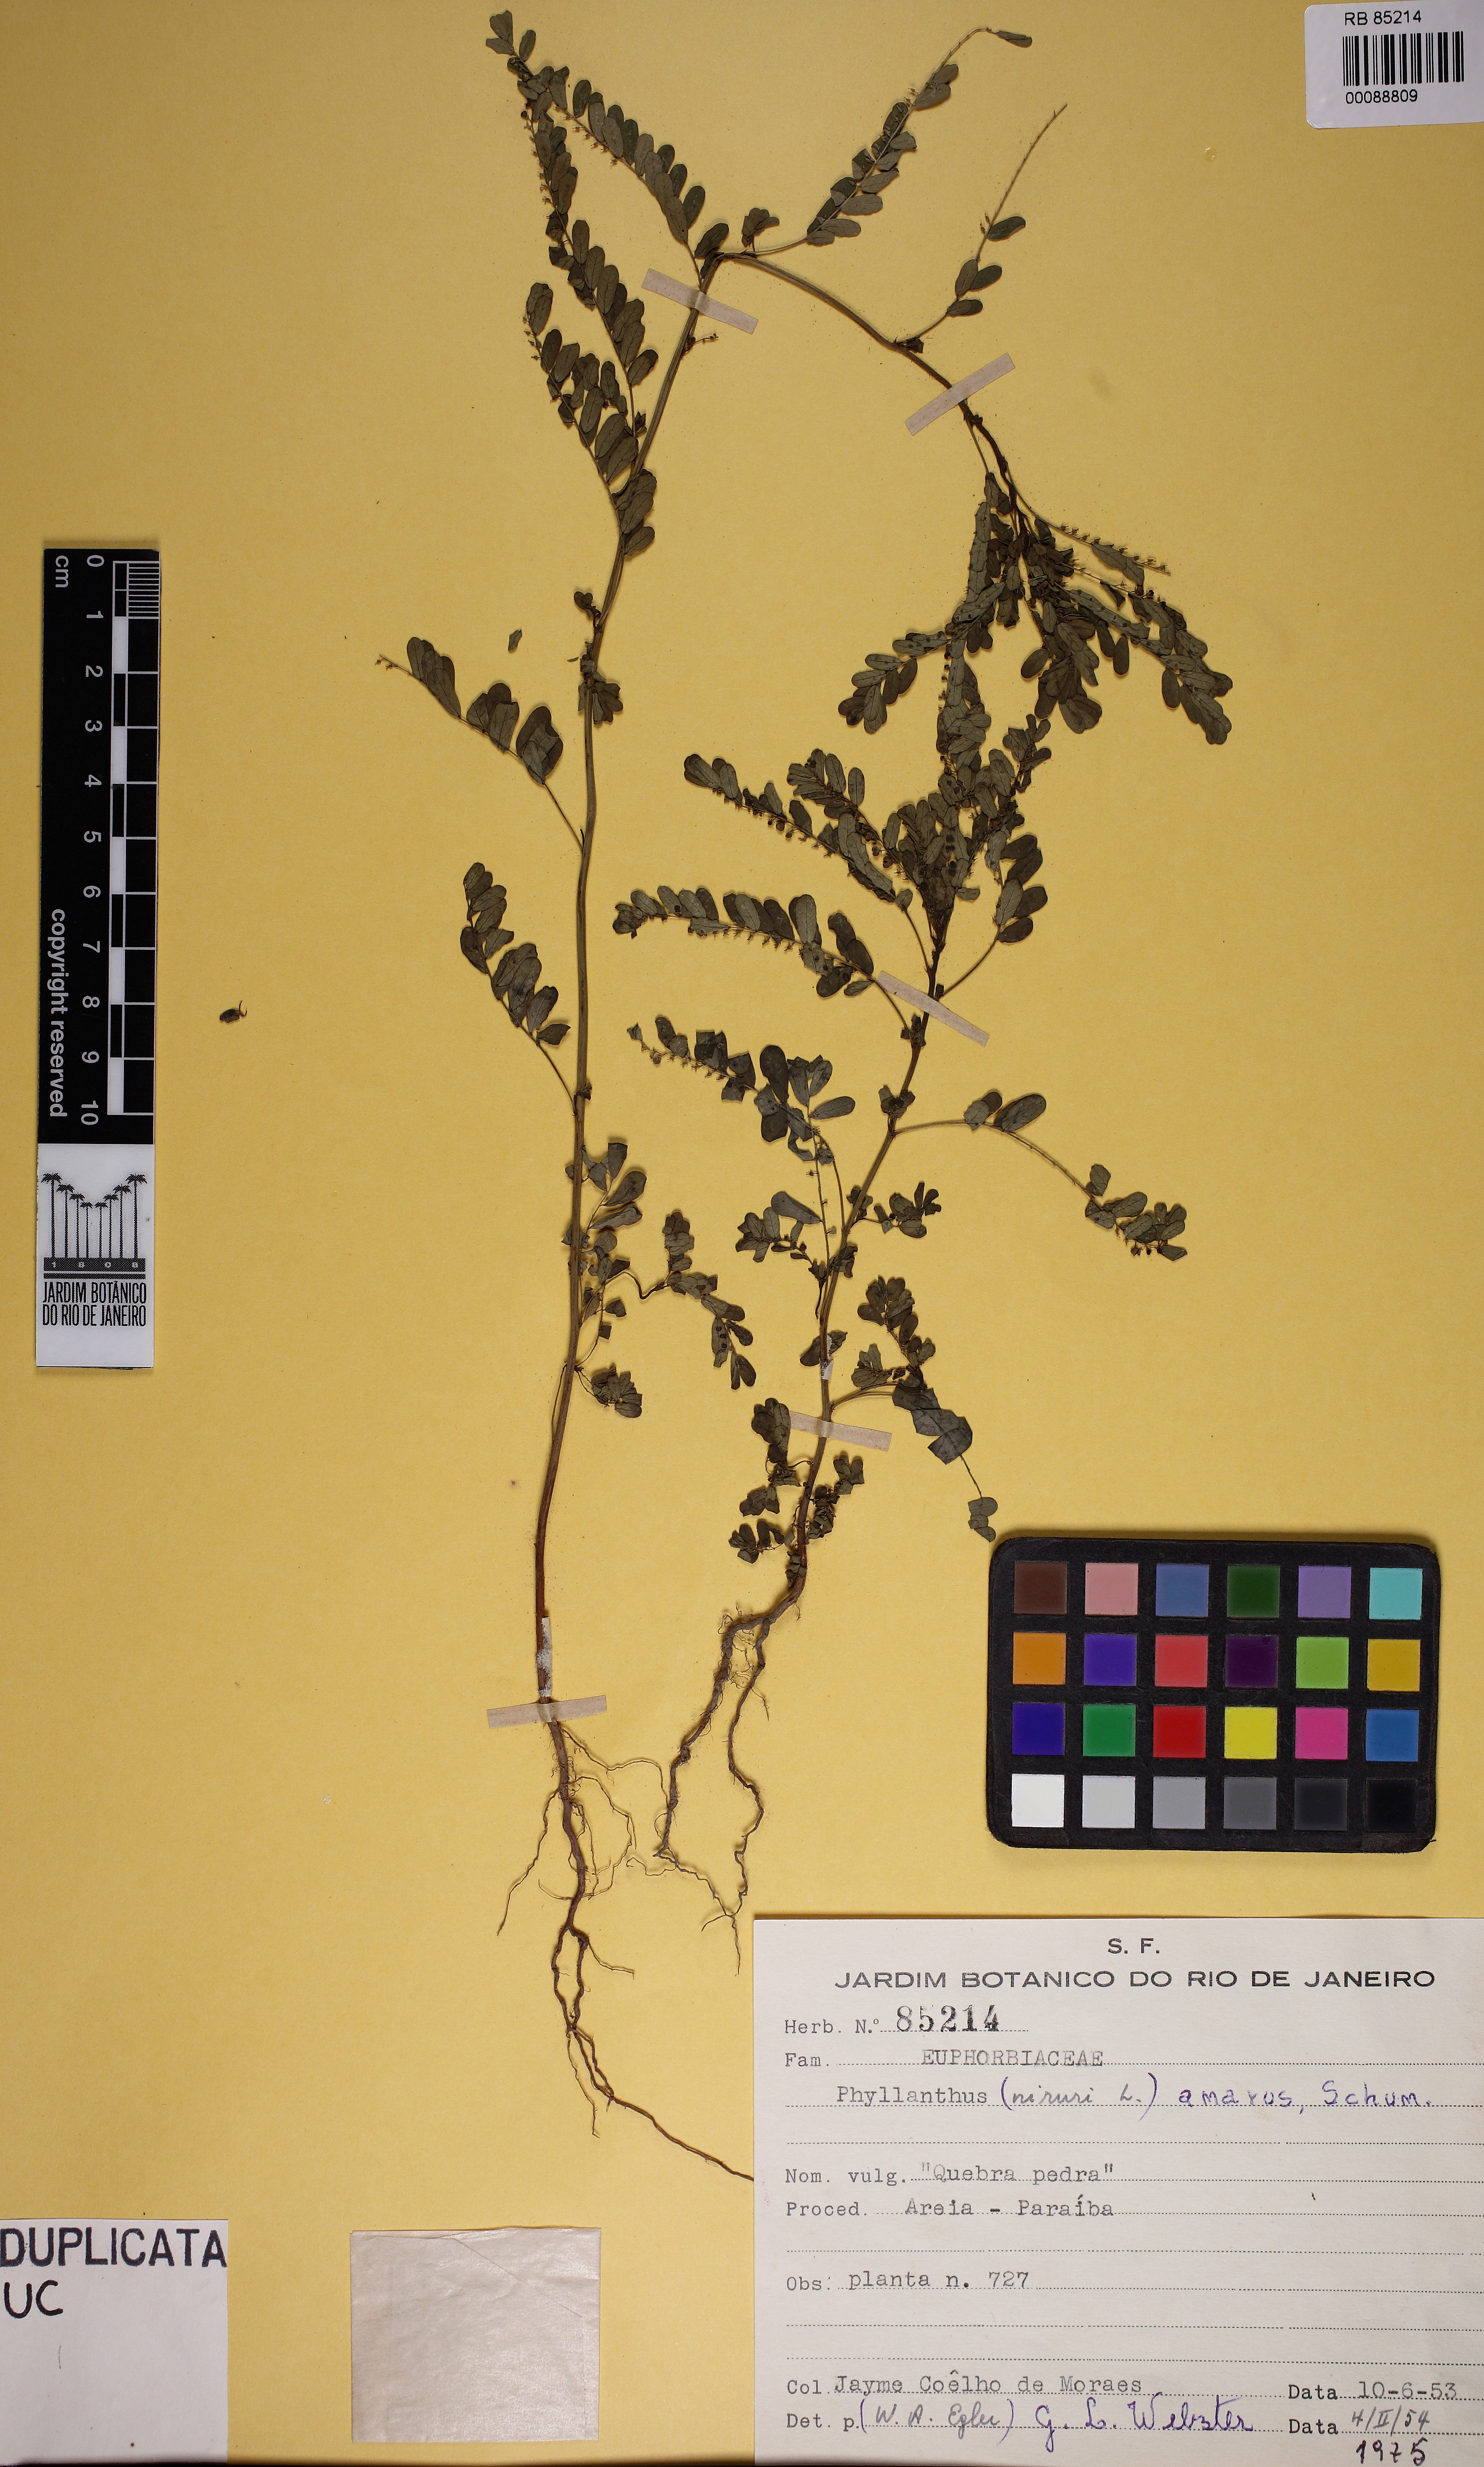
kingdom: Plantae
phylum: Tracheophyta
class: Magnoliopsida
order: Malpighiales
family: Phyllanthaceae
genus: Phyllanthus
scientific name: Phyllanthus amarus
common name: Carry me seed
